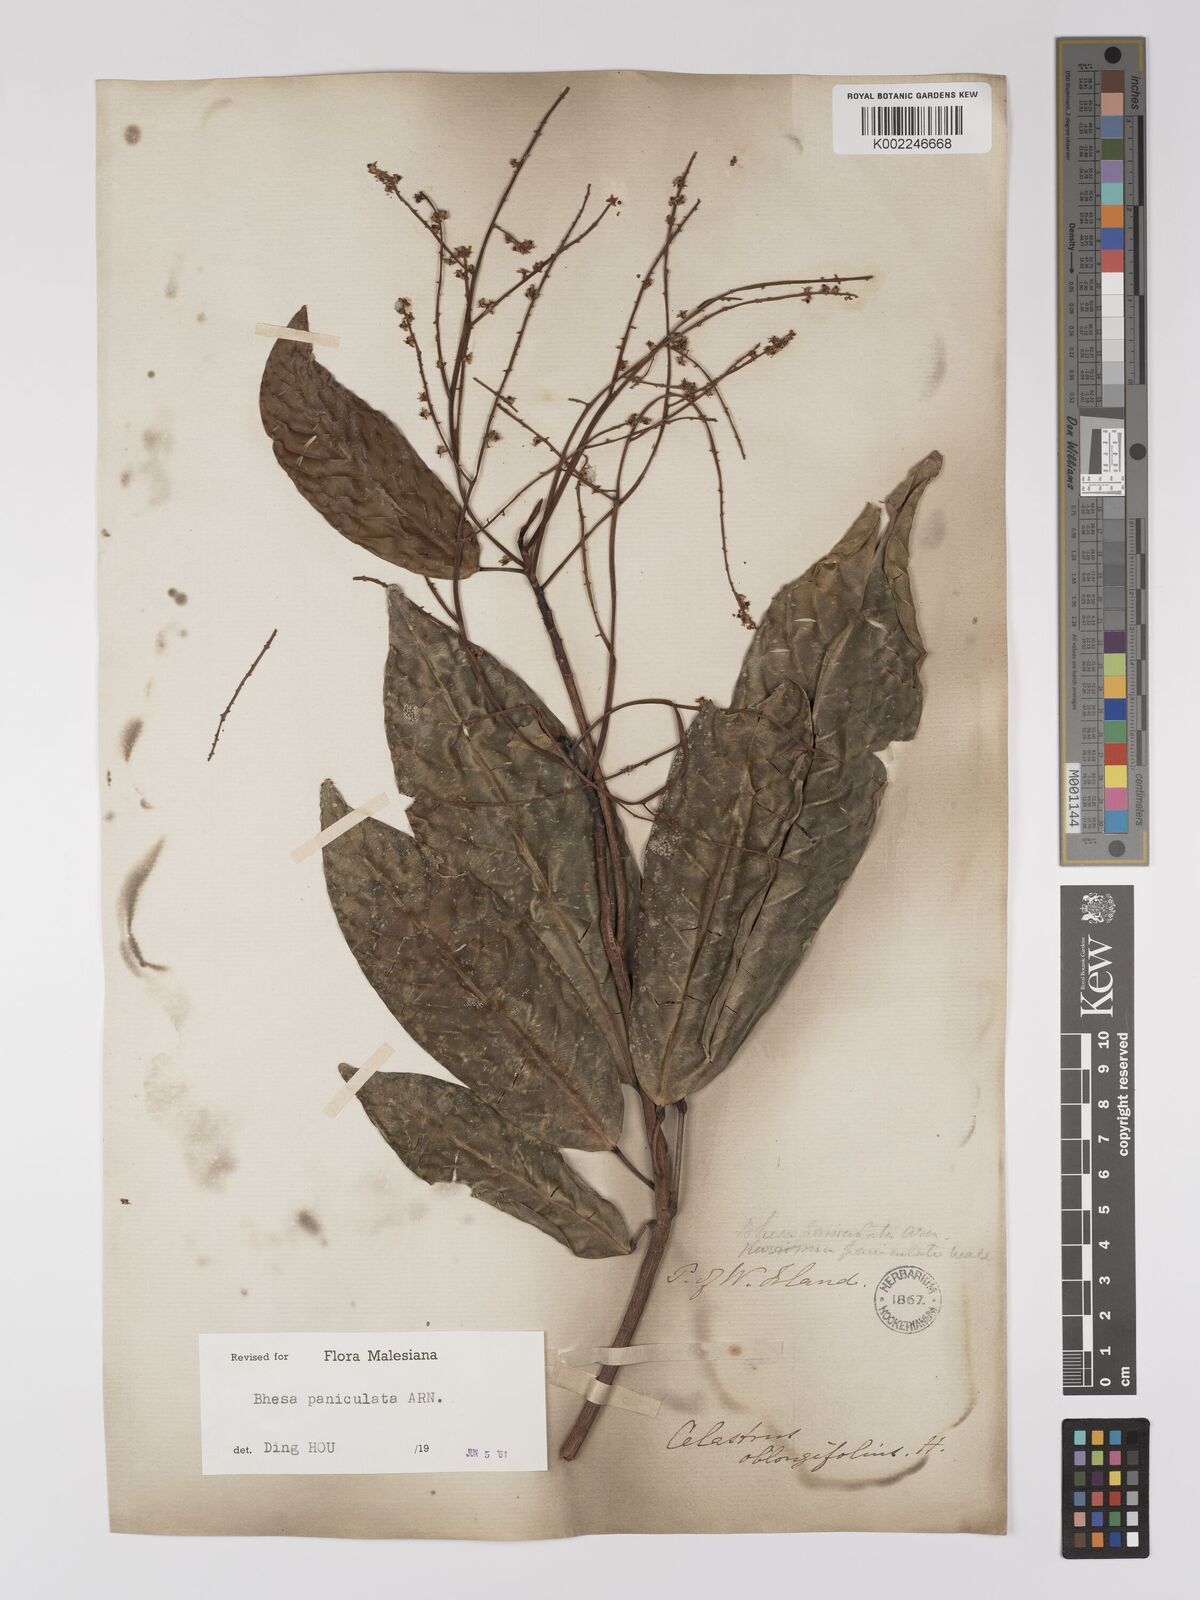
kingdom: Plantae
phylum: Tracheophyta
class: Magnoliopsida
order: Malpighiales
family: Centroplacaceae
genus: Bhesa
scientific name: Bhesa paniculata
